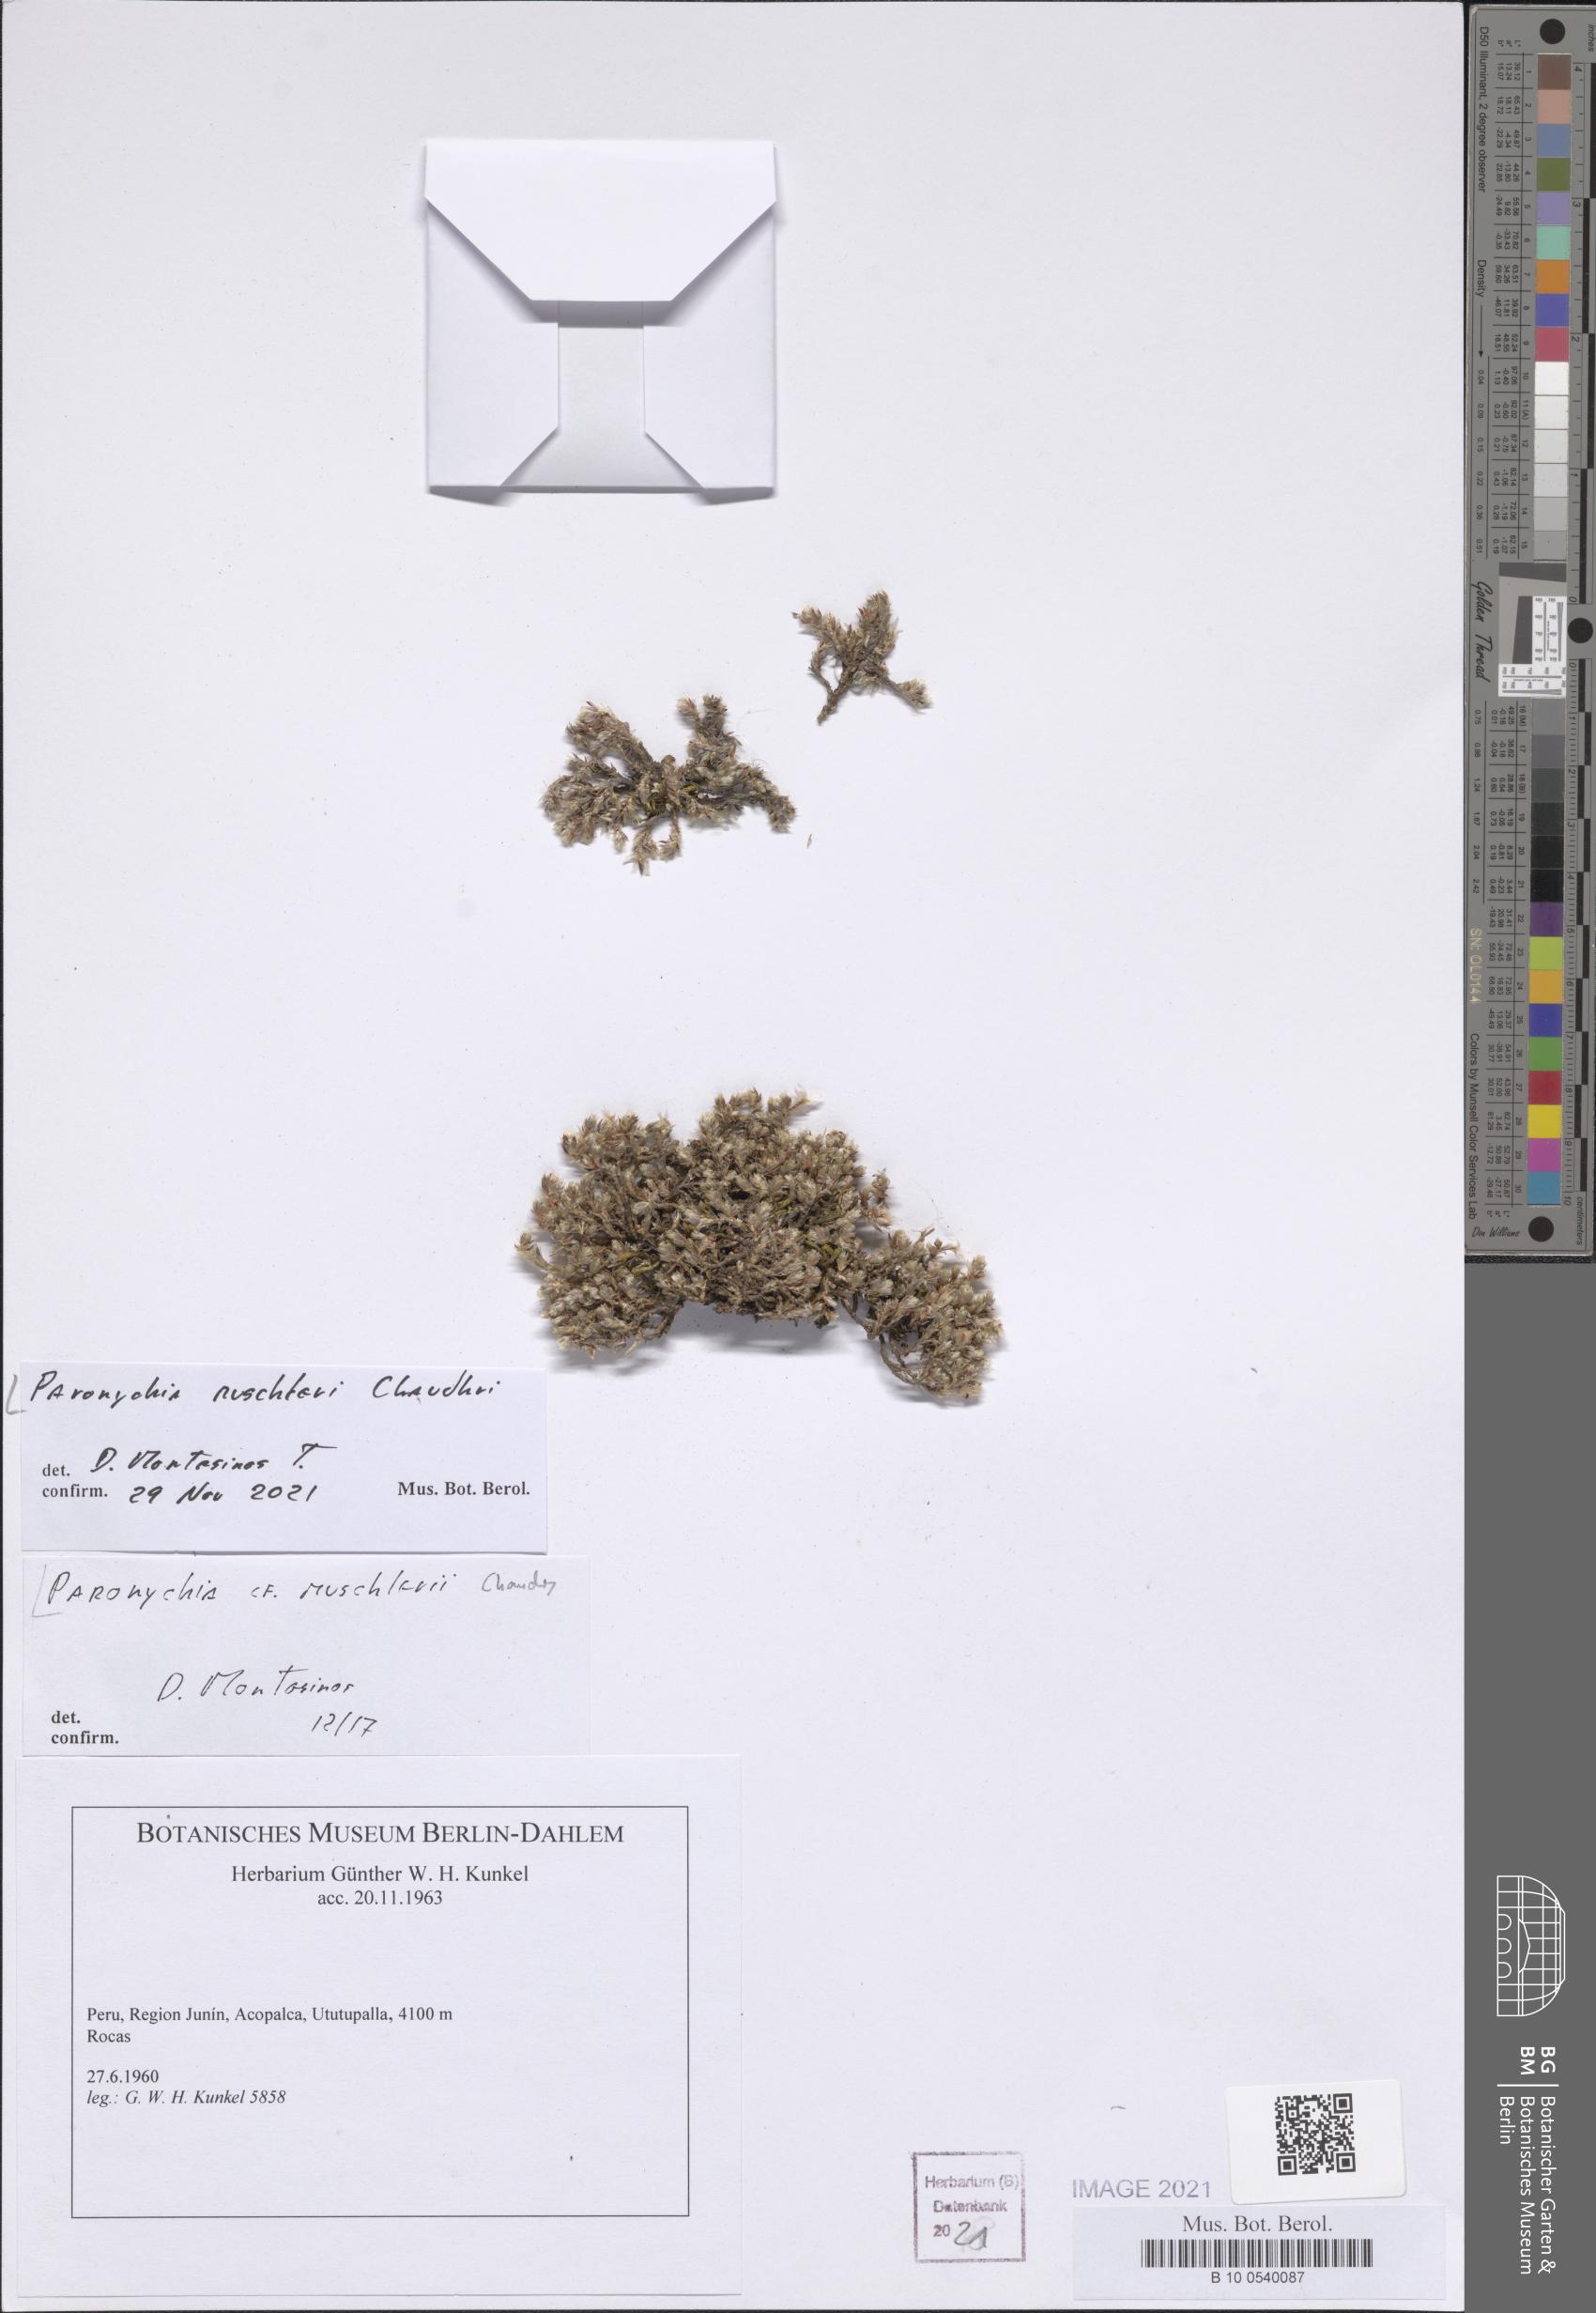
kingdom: Plantae
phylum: Tracheophyta
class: Magnoliopsida
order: Caryophyllales
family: Caryophyllaceae
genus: Paronychia
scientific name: Paronychia muschleri
